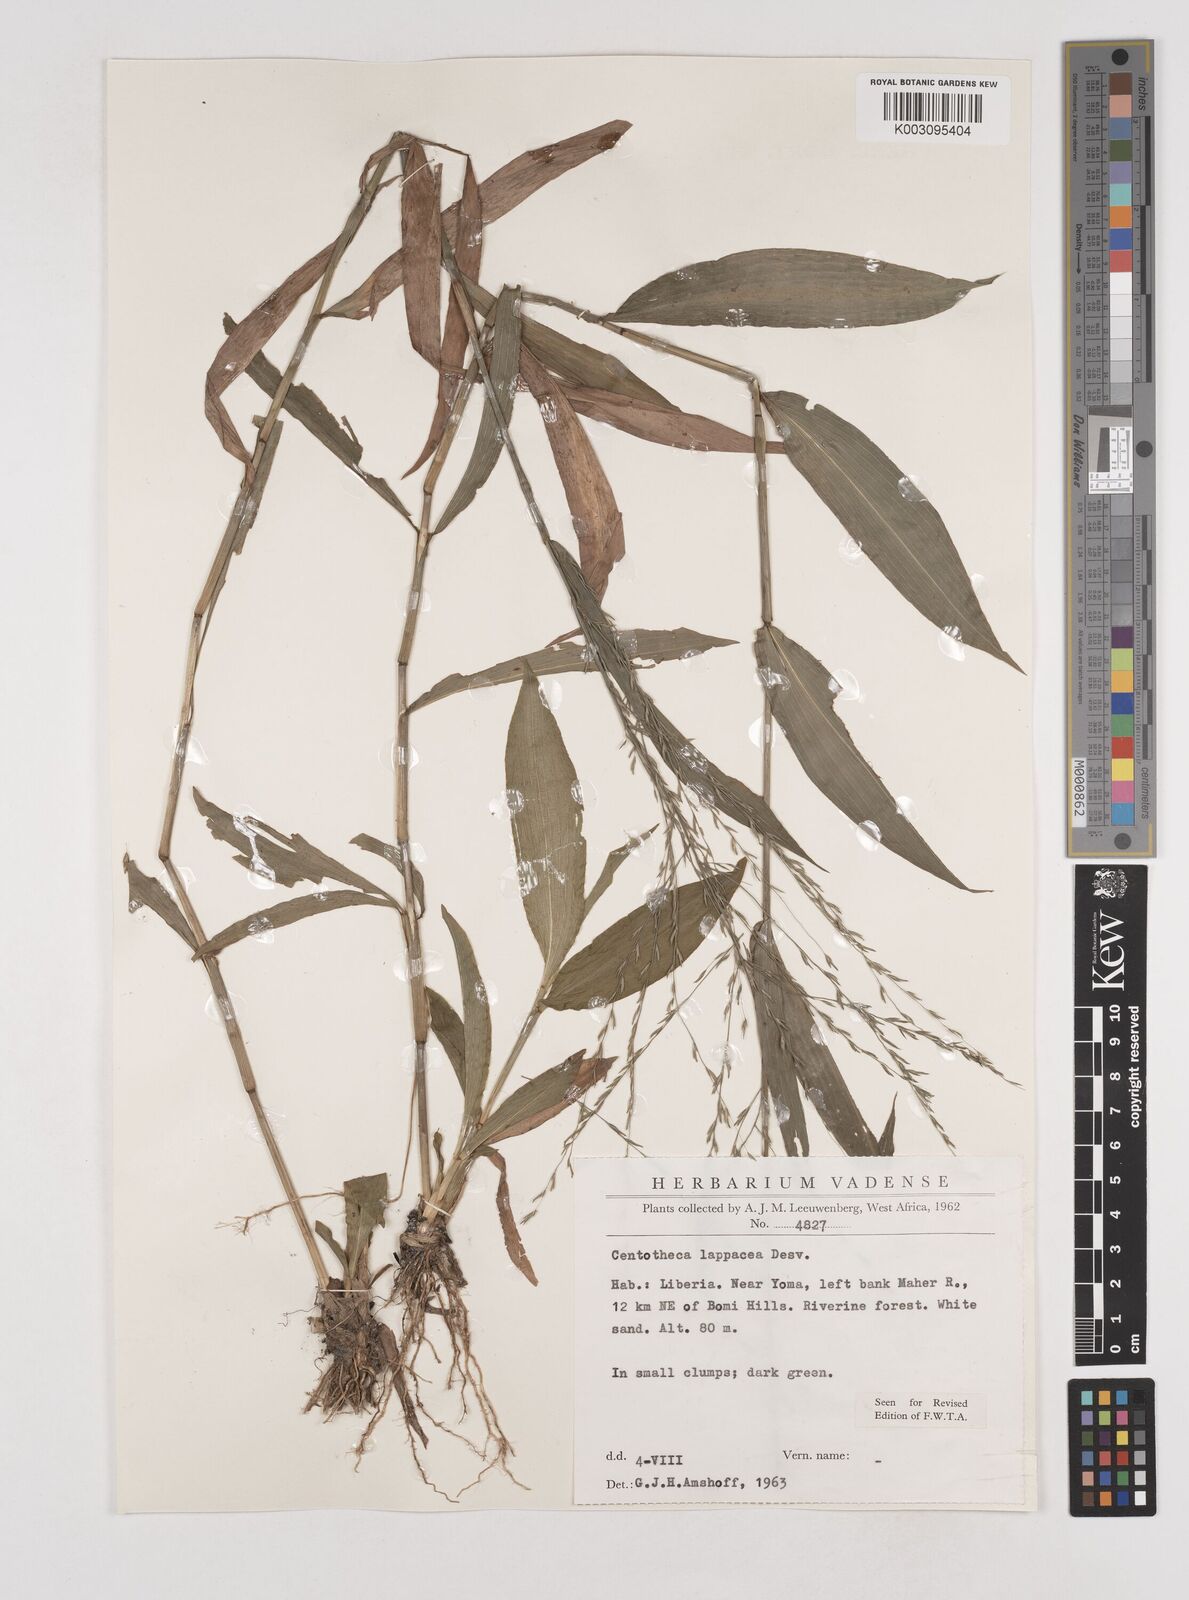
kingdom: Plantae
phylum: Tracheophyta
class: Liliopsida
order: Poales
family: Poaceae
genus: Centotheca
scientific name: Centotheca lappacea
